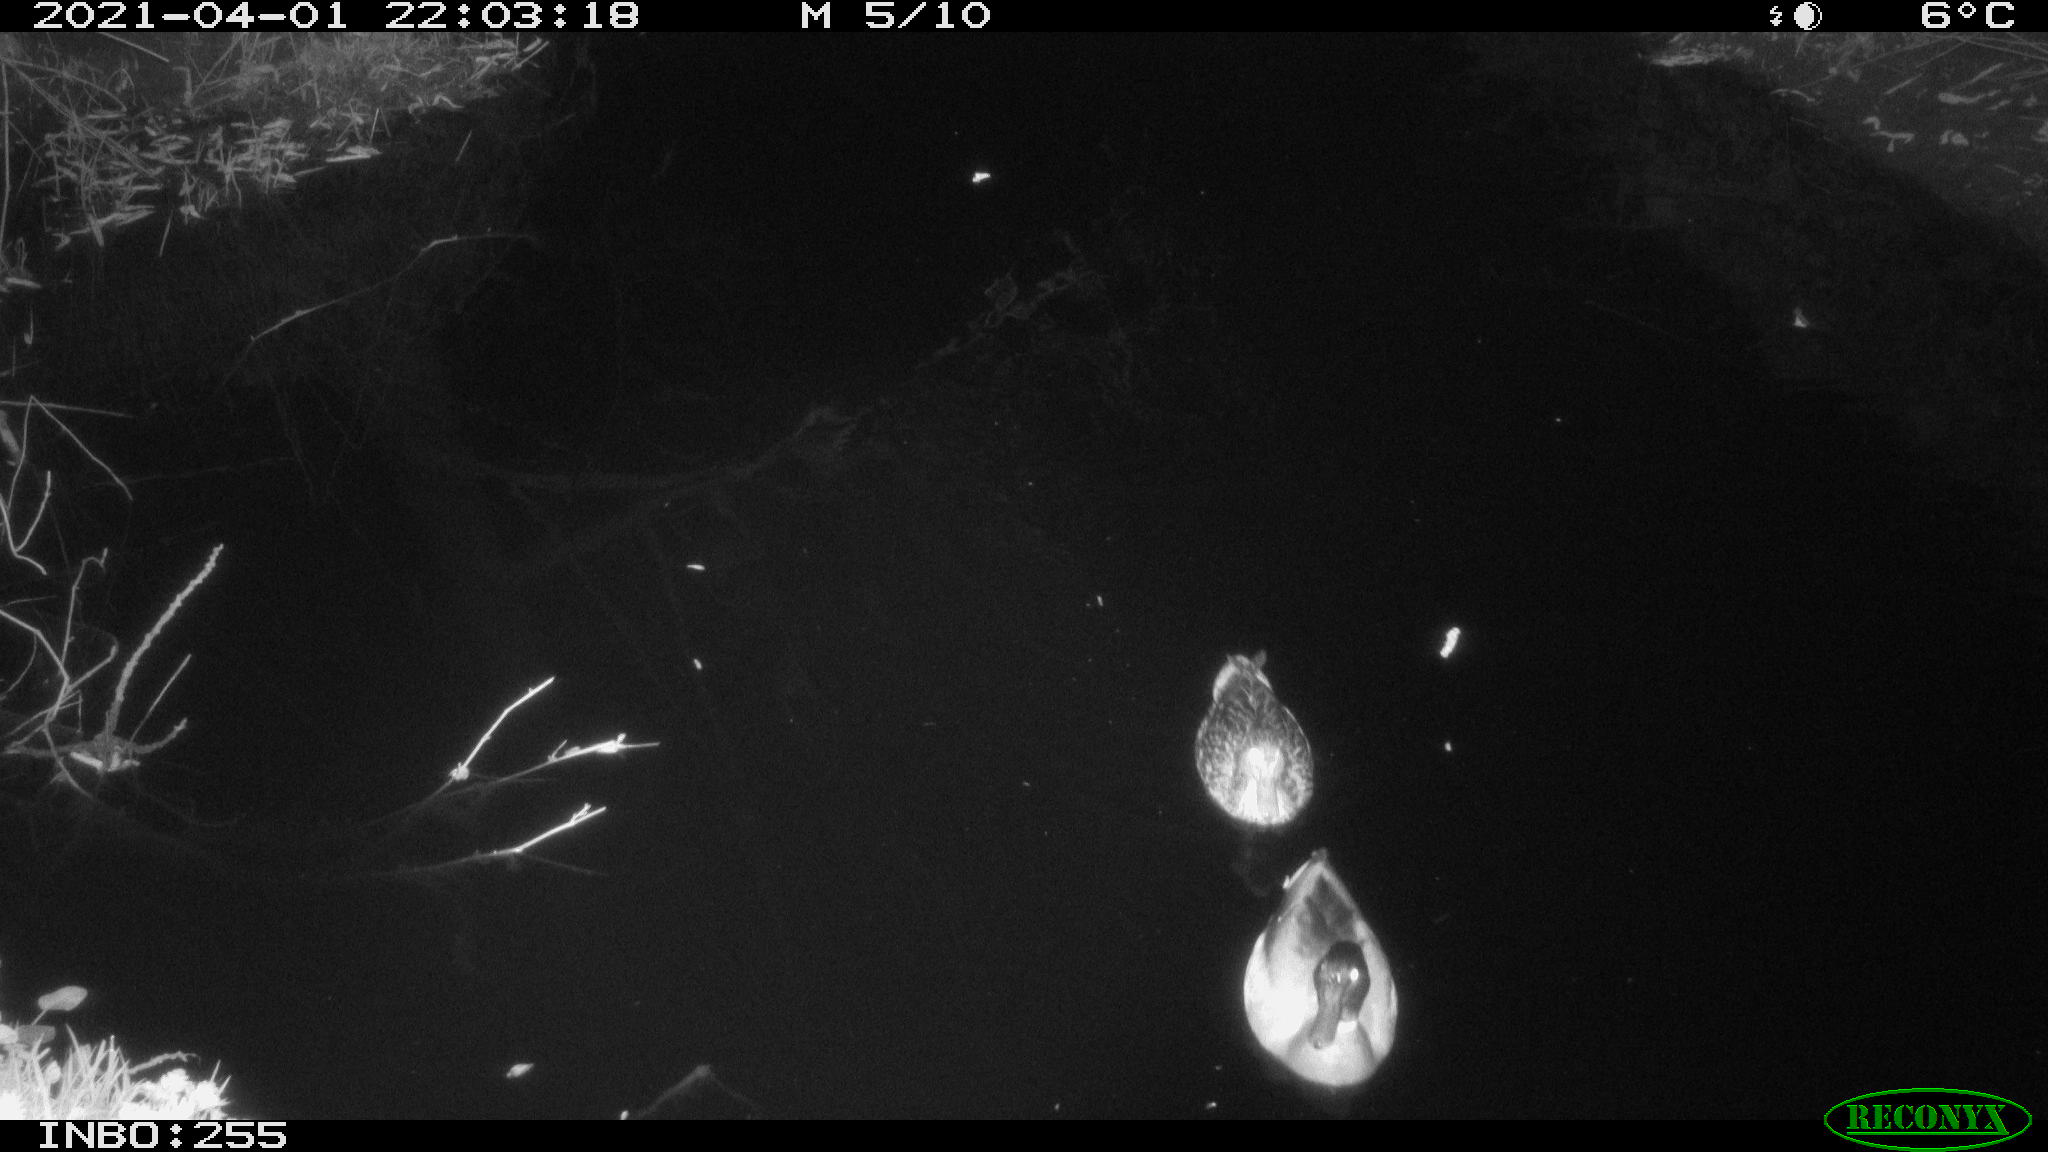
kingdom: Animalia
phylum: Chordata
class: Aves
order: Anseriformes
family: Anatidae
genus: Anas
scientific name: Anas platyrhynchos
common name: Mallard
